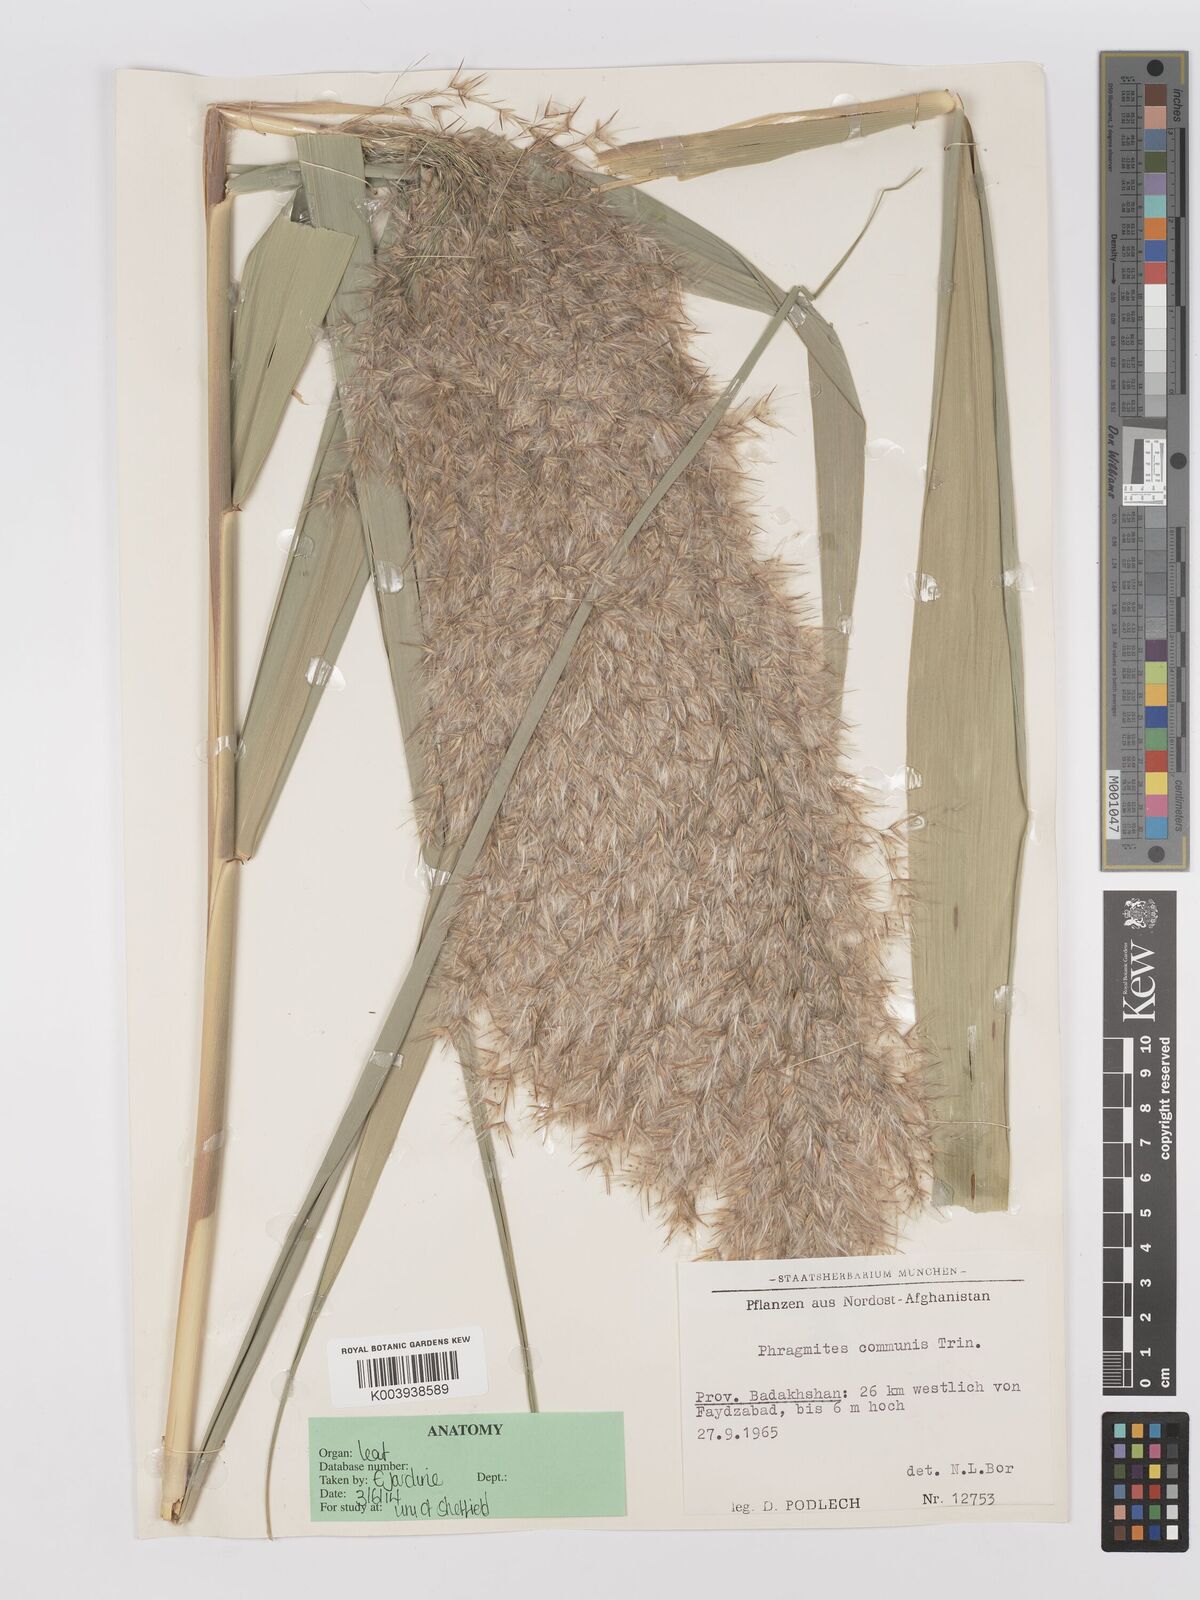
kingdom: Plantae
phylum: Tracheophyta
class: Liliopsida
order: Poales
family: Poaceae
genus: Phragmites
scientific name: Phragmites australis
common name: Common reed
